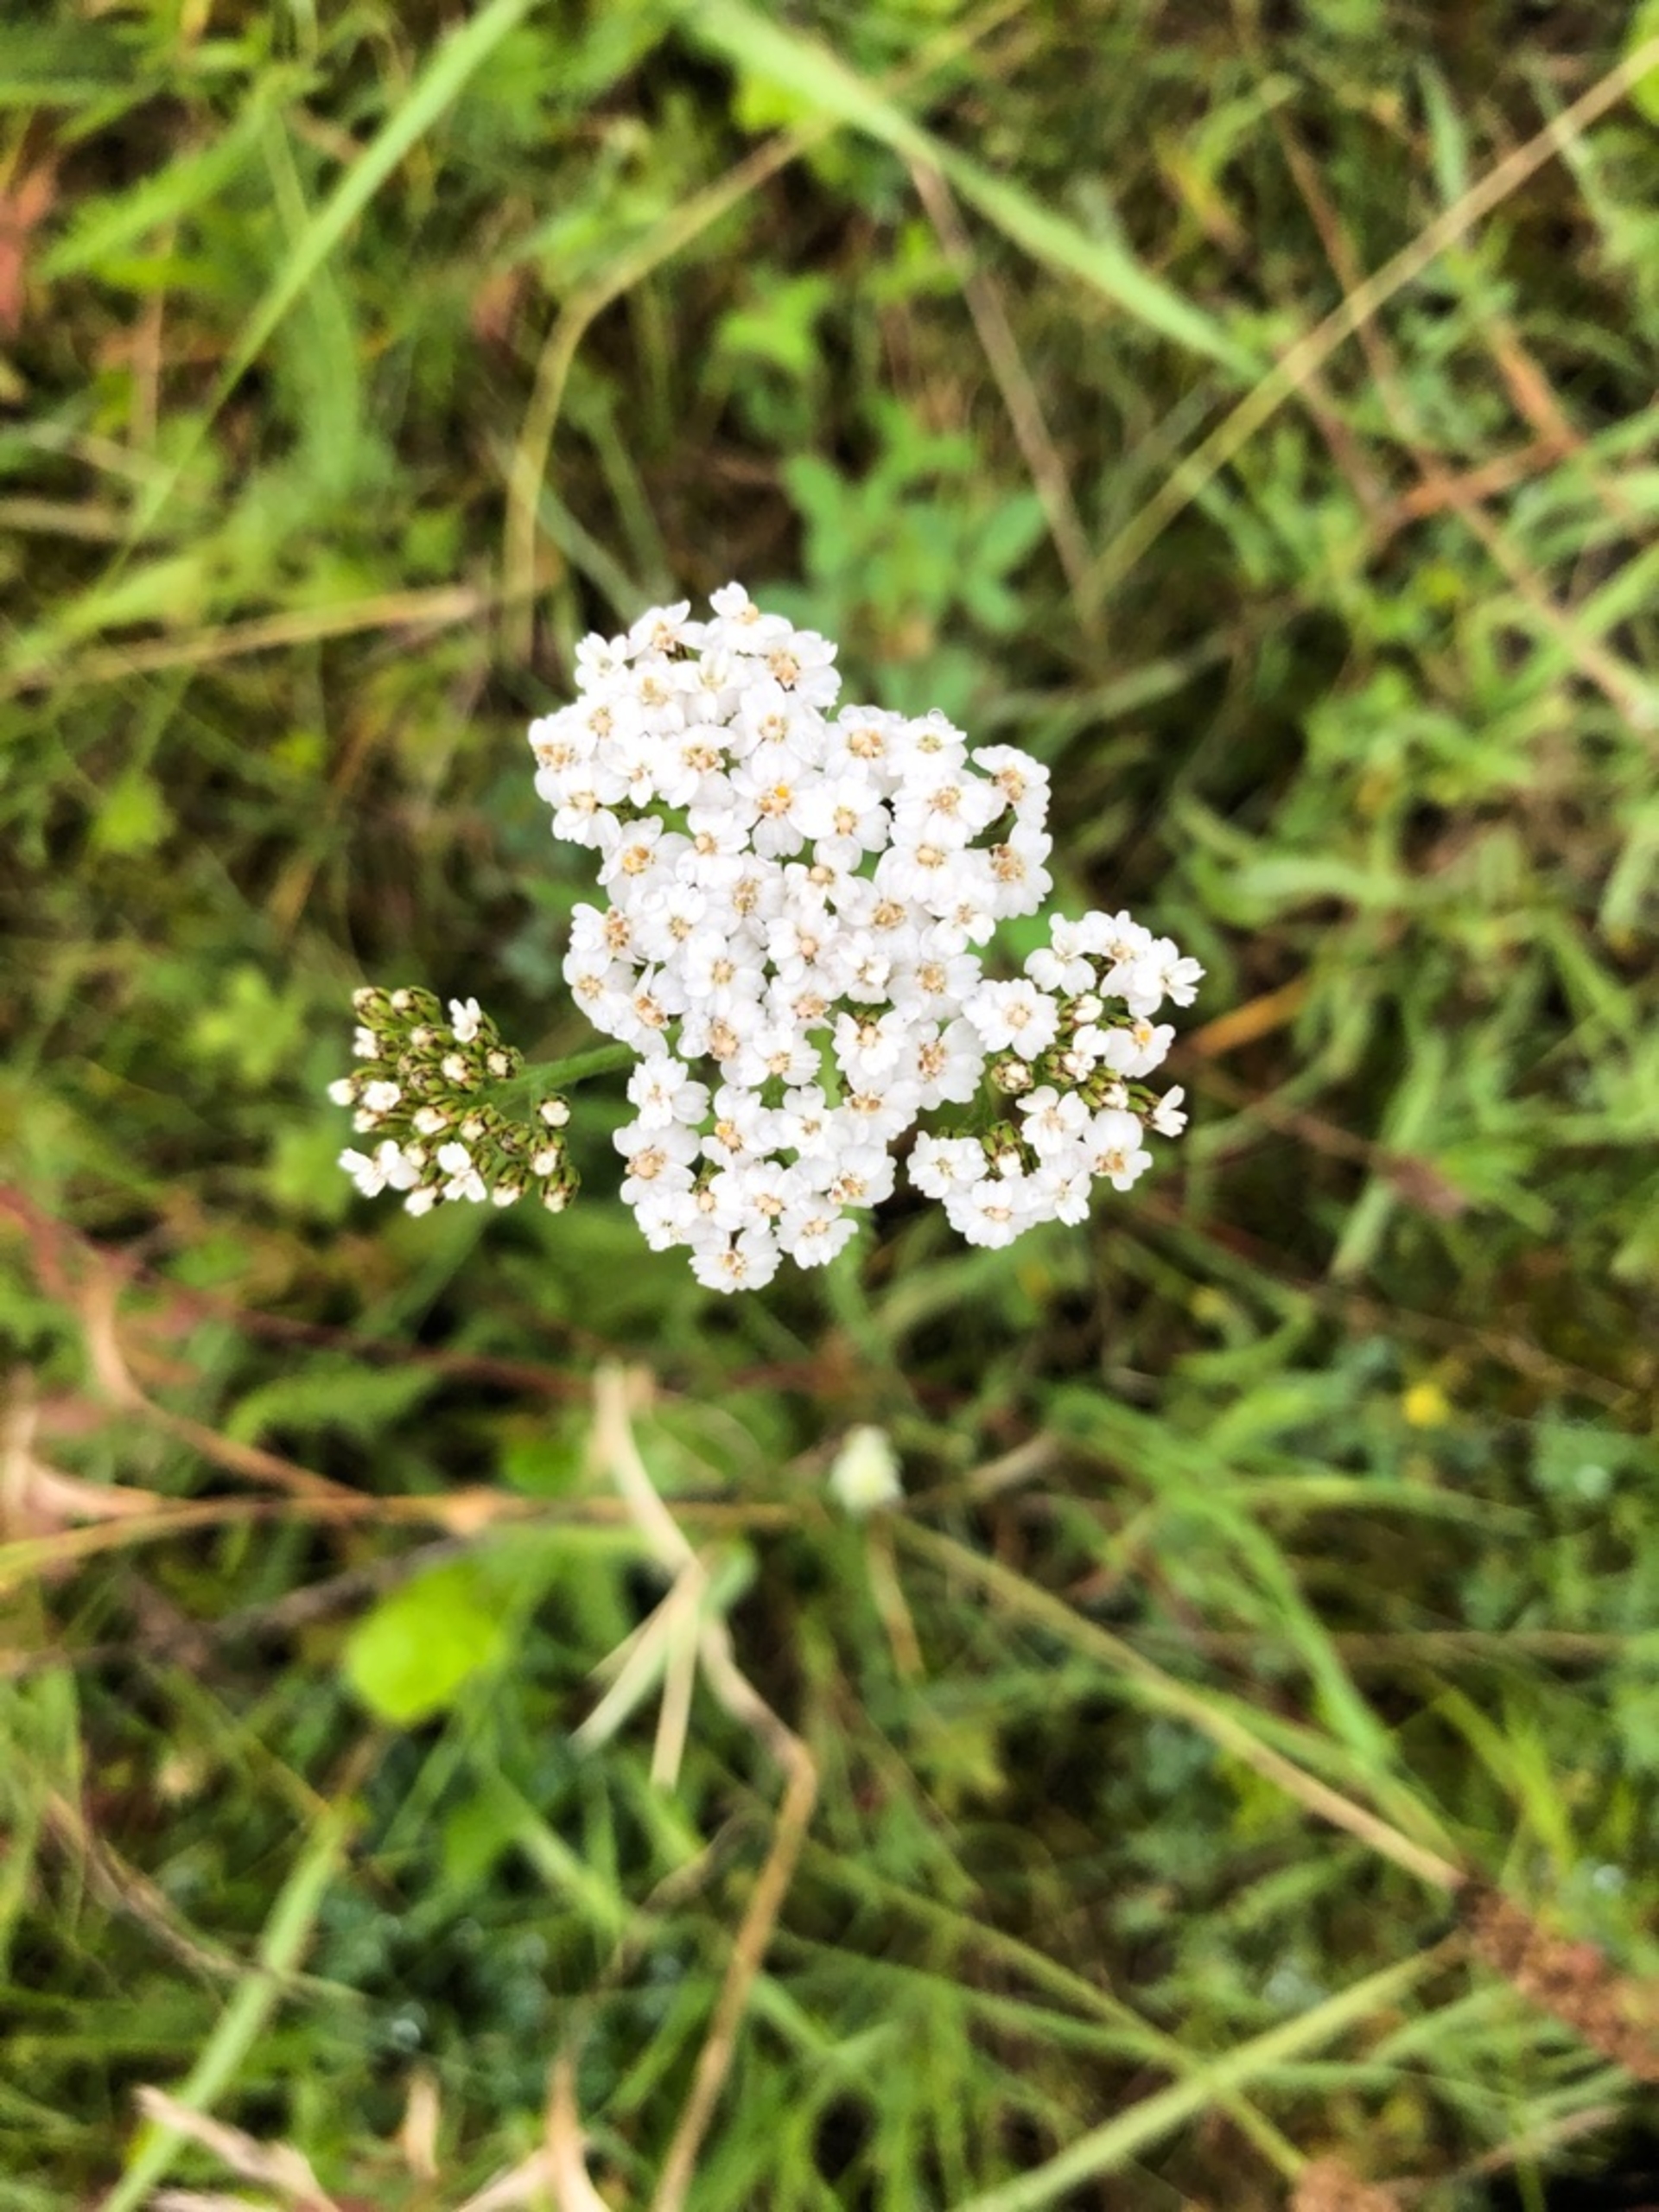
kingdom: Plantae
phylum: Tracheophyta
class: Magnoliopsida
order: Asterales
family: Asteraceae
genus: Achillea
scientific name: Achillea millefolium
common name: Almindelig røllike
